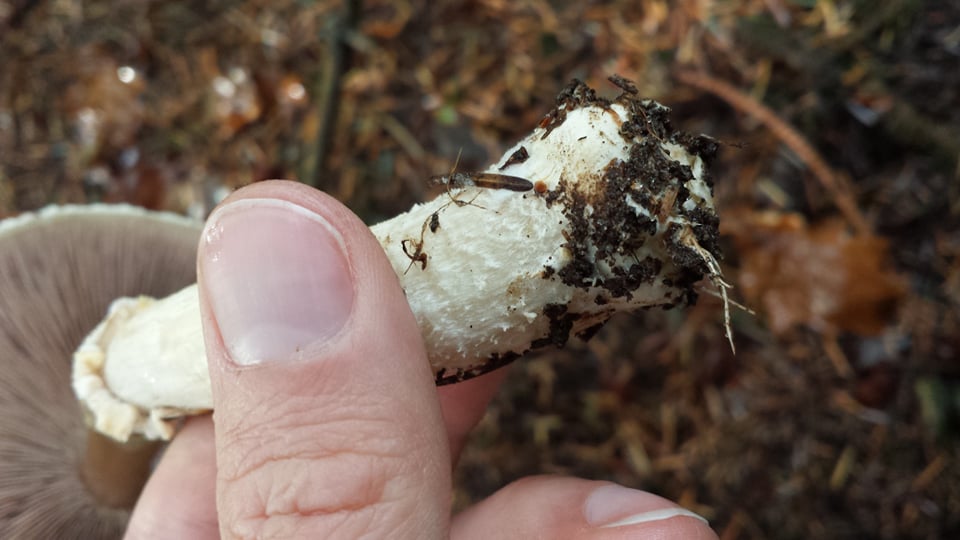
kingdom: Fungi
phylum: Basidiomycota
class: Agaricomycetes
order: Agaricales
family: Agaricaceae
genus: Agaricus
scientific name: Agaricus sylvicola
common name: gulhvid champignon
